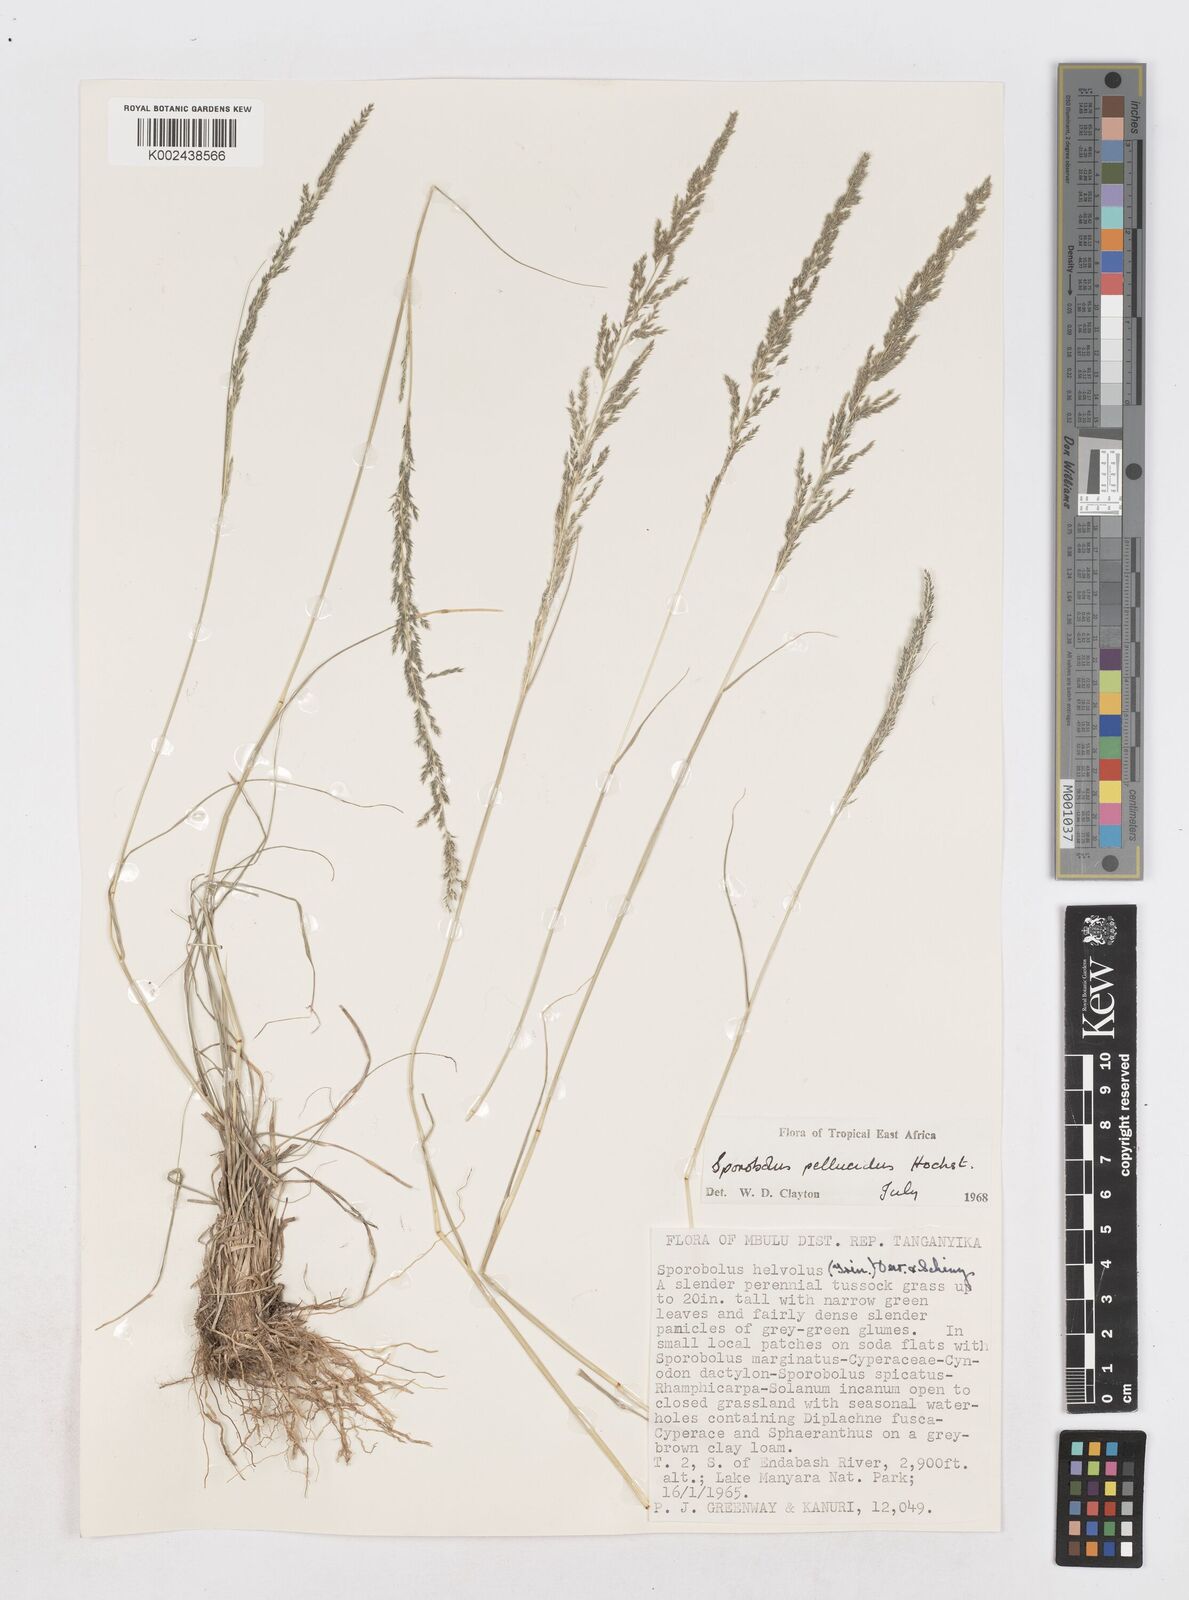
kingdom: Plantae
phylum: Tracheophyta
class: Liliopsida
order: Poales
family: Poaceae
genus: Sporobolus
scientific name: Sporobolus pellucidus
